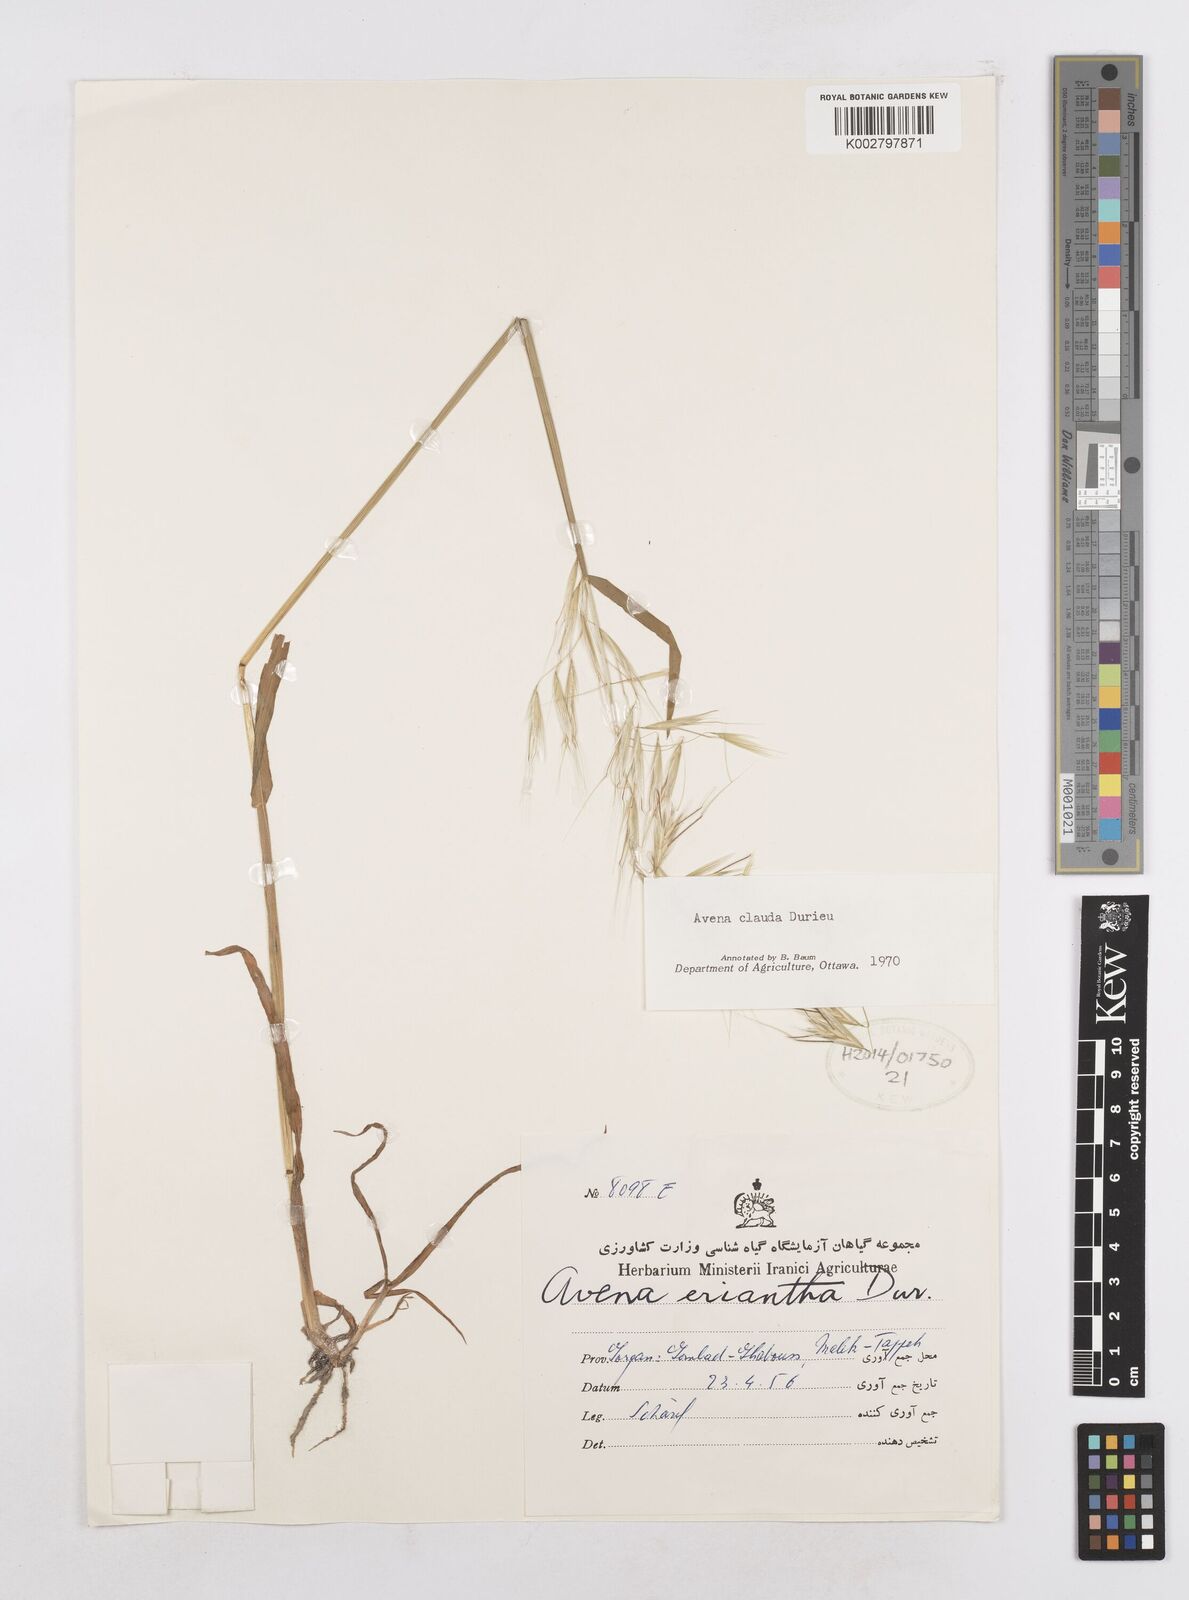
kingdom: Plantae
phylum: Tracheophyta
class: Liliopsida
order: Poales
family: Poaceae
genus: Avena
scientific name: Avena clauda
